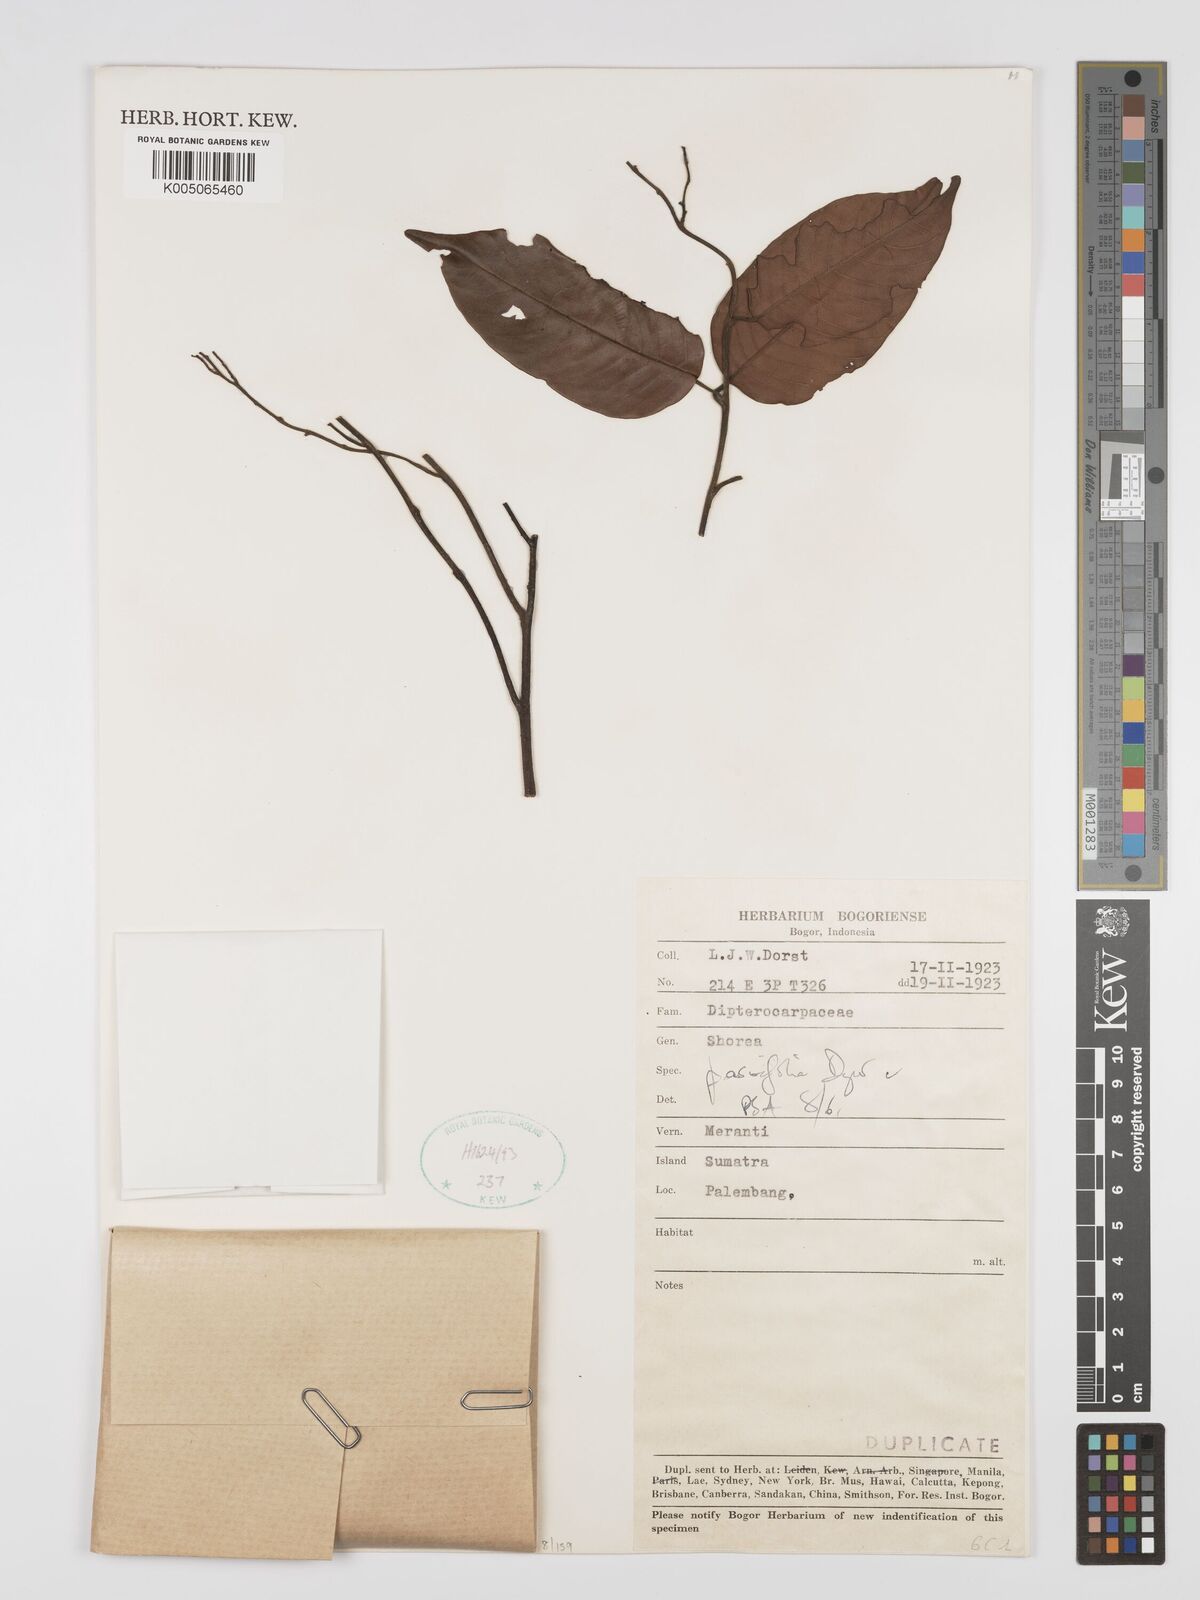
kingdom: Plantae
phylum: Tracheophyta
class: Magnoliopsida
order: Malvales
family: Dipterocarpaceae
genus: Shorea
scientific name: Shorea parvifolia
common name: Light red meranti
